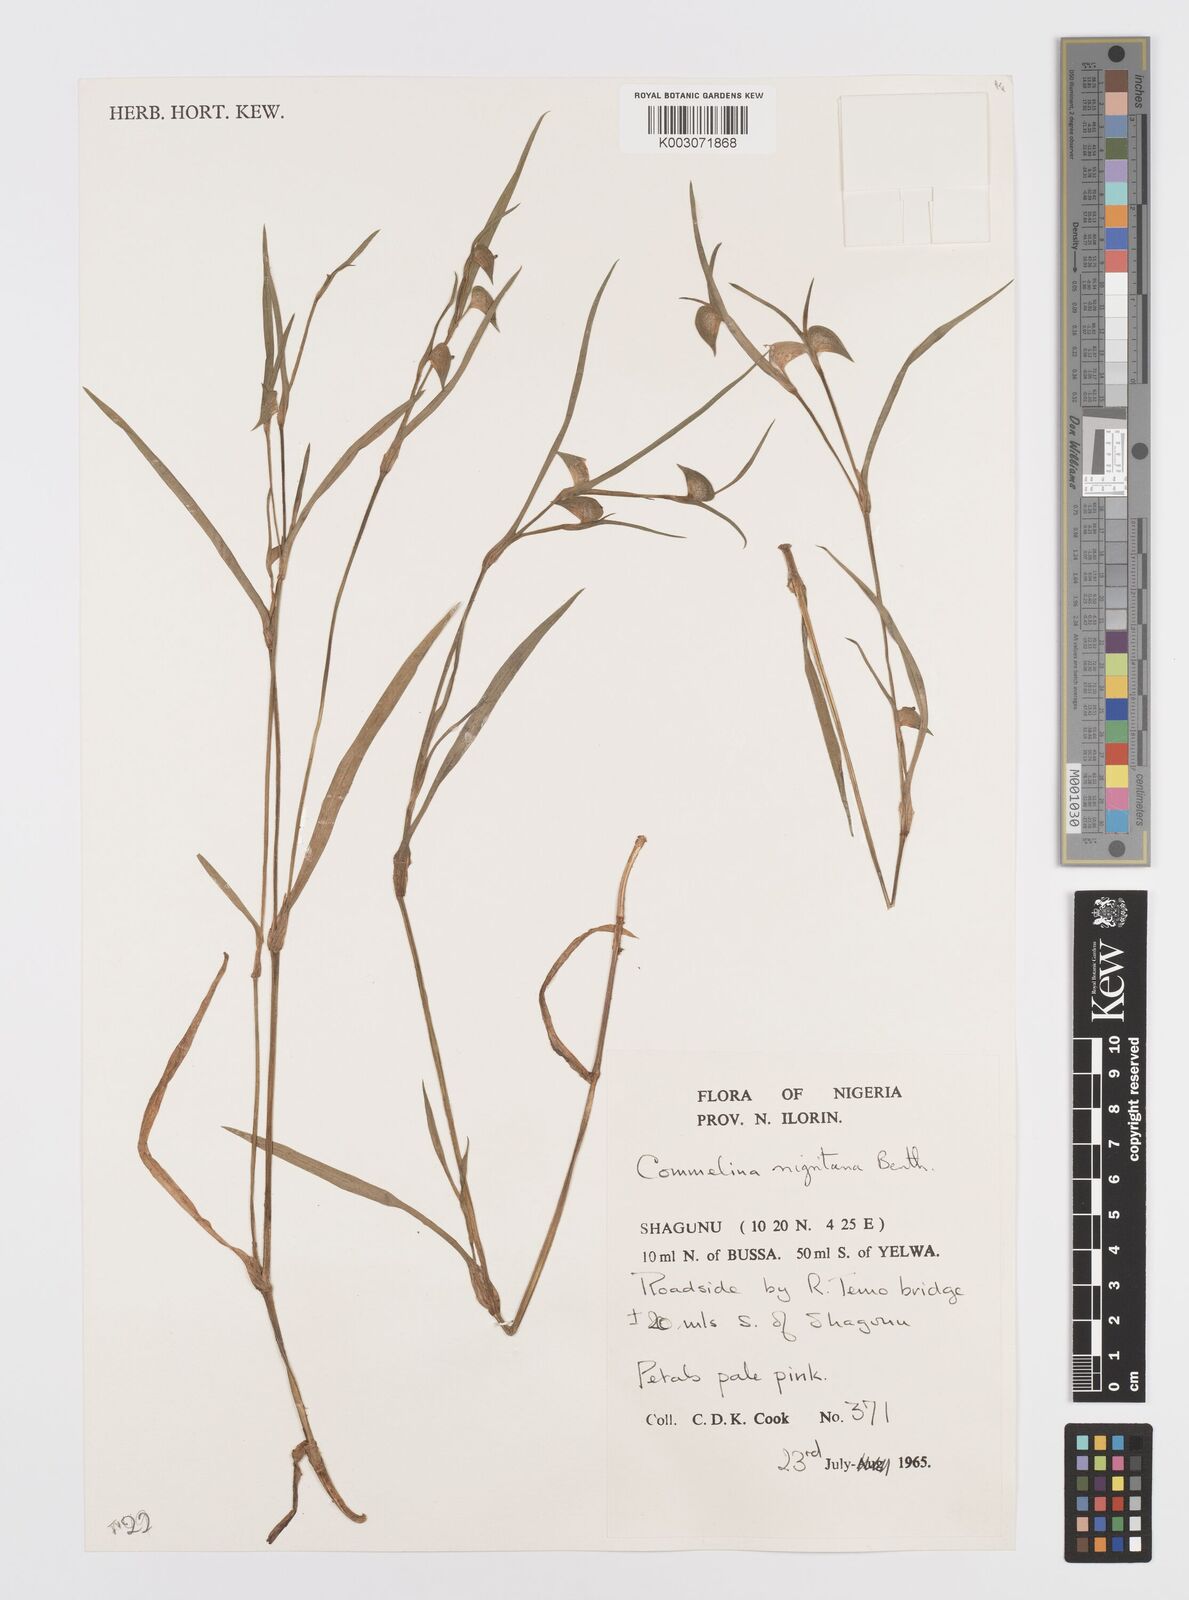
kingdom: Plantae
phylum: Tracheophyta
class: Liliopsida
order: Commelinales
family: Commelinaceae
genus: Commelina
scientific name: Commelina
